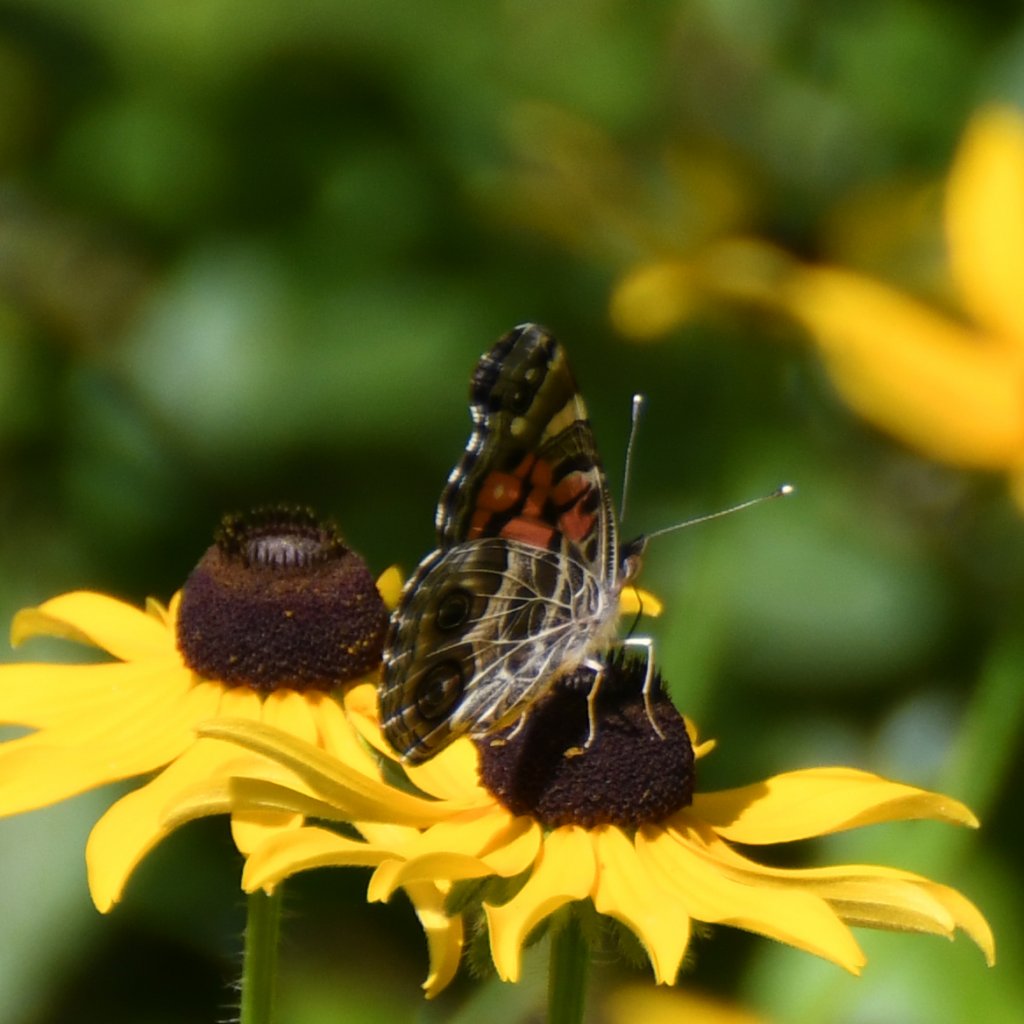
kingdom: Animalia
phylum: Arthropoda
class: Insecta
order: Lepidoptera
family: Nymphalidae
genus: Vanessa
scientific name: Vanessa virginiensis
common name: American Lady
